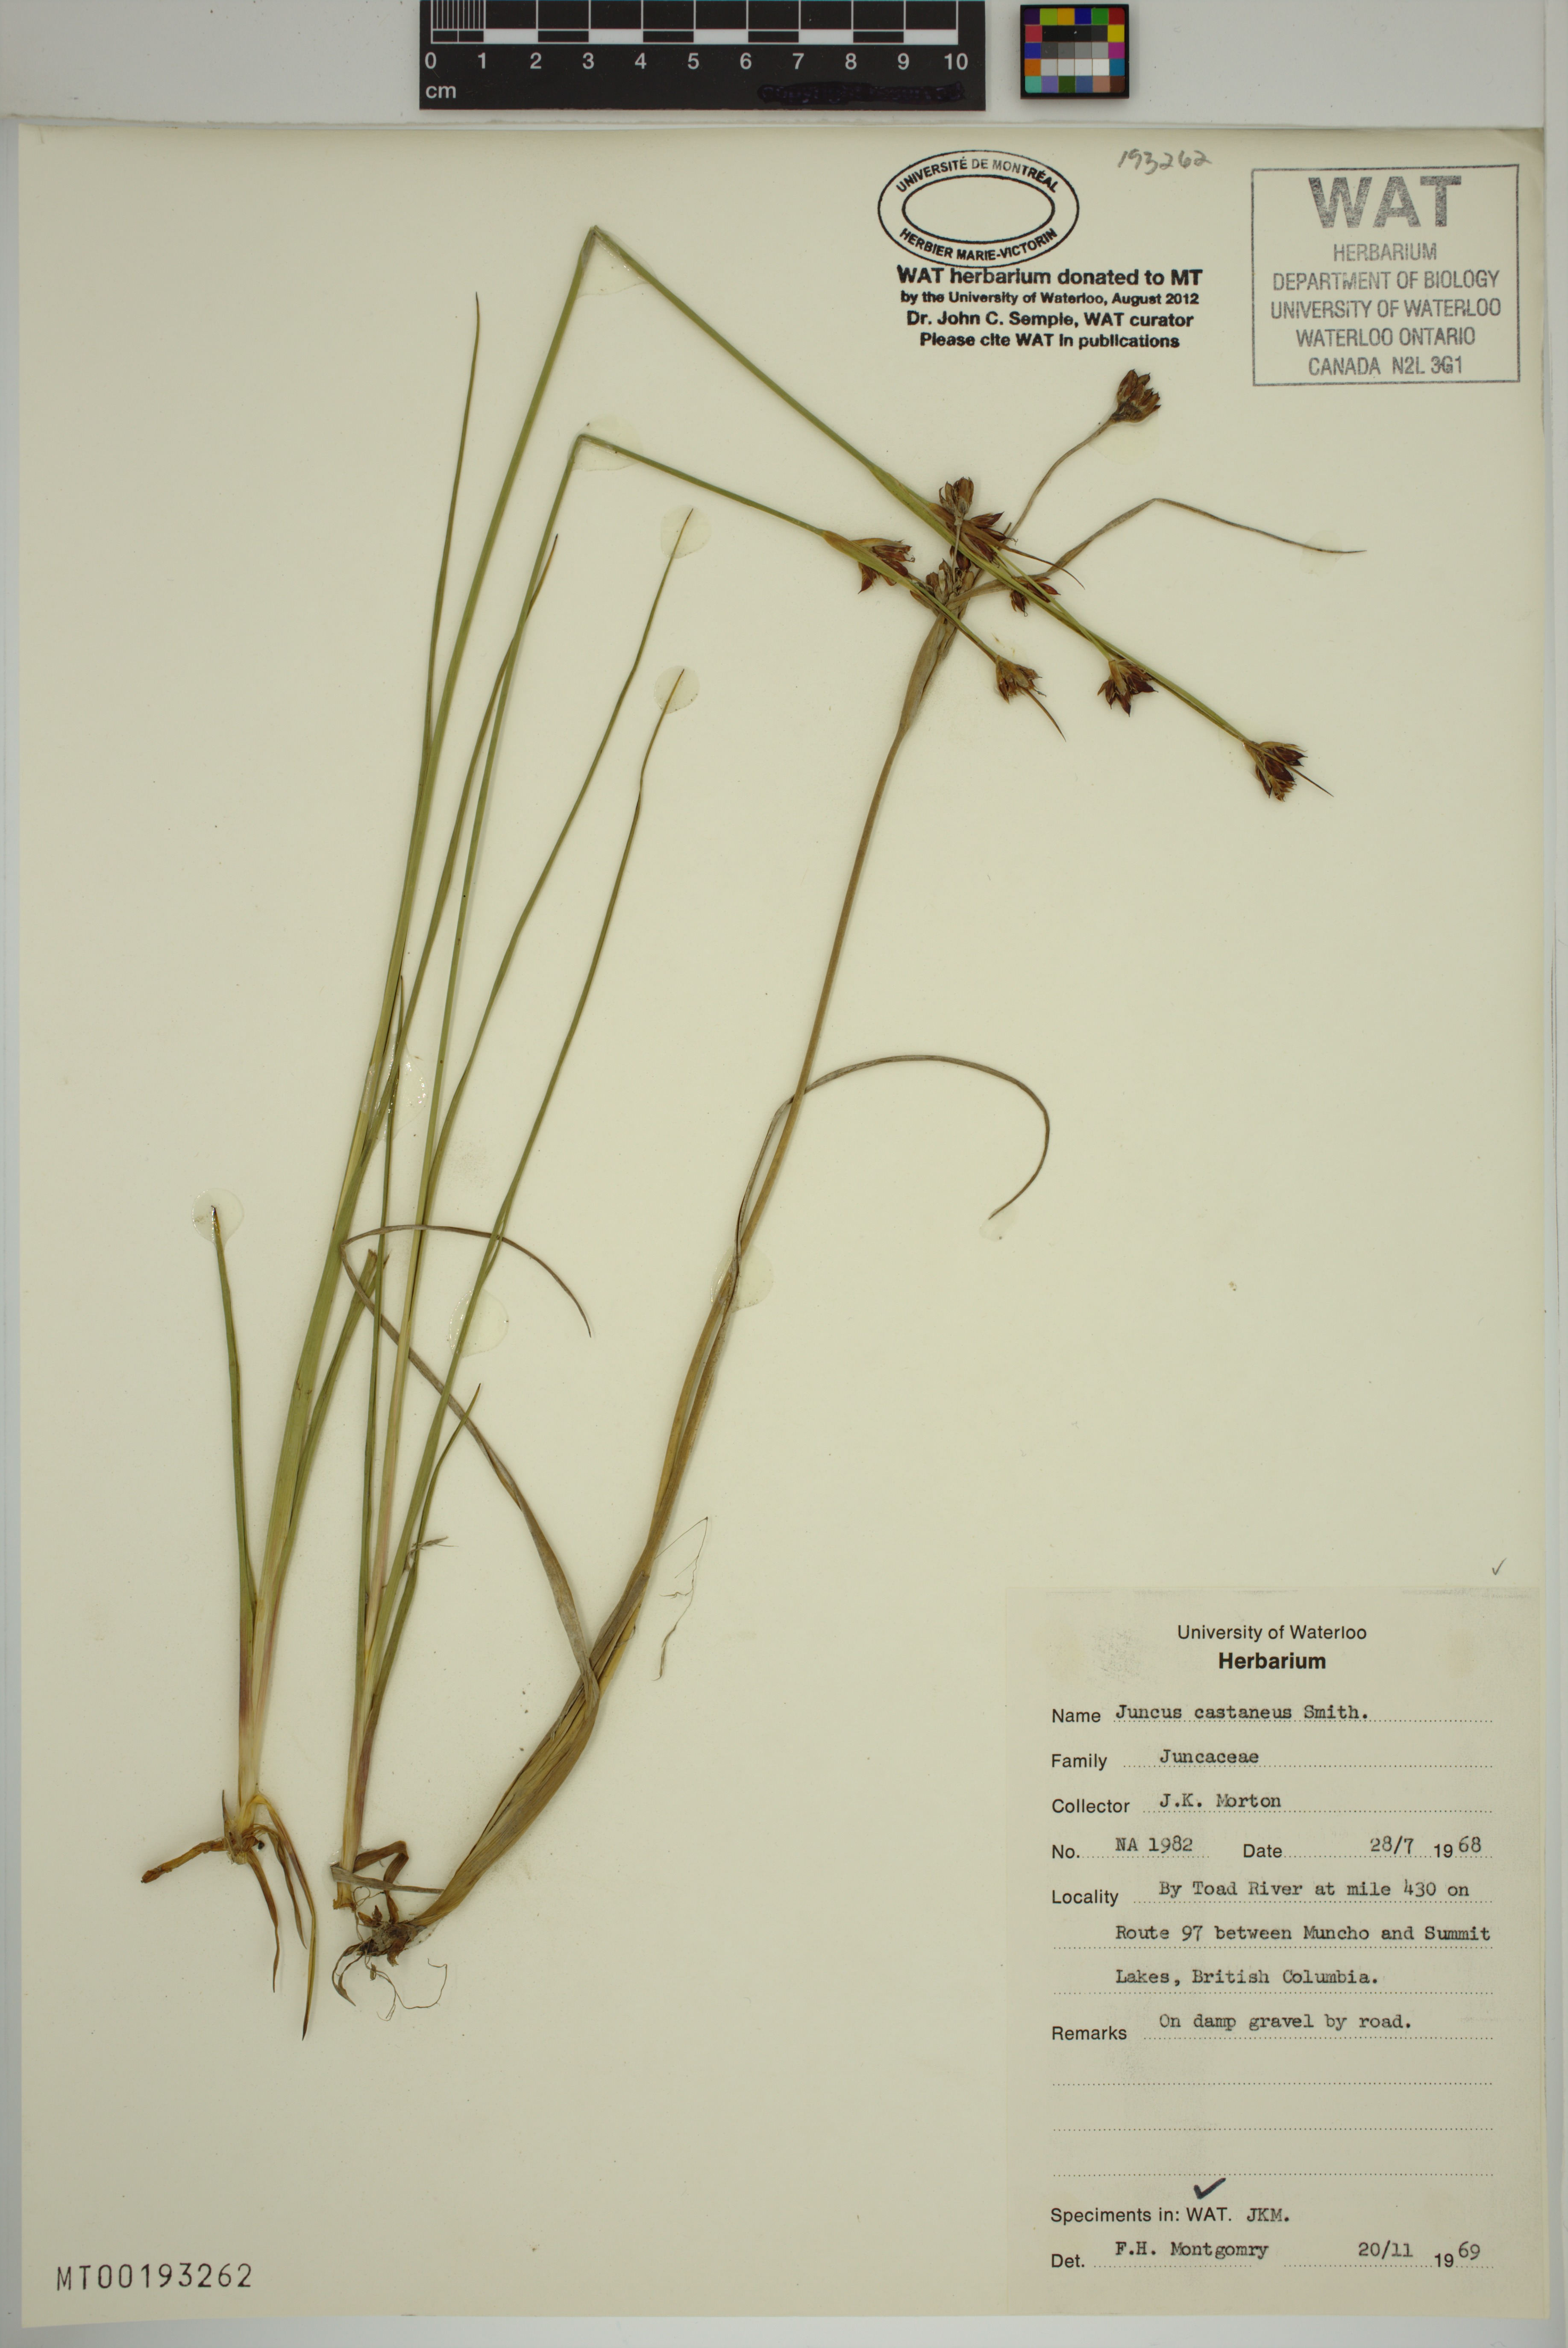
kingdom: Plantae
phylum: Tracheophyta
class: Liliopsida
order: Poales
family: Juncaceae
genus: Juncus
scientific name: Juncus castaneus
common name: Chestnut rush
